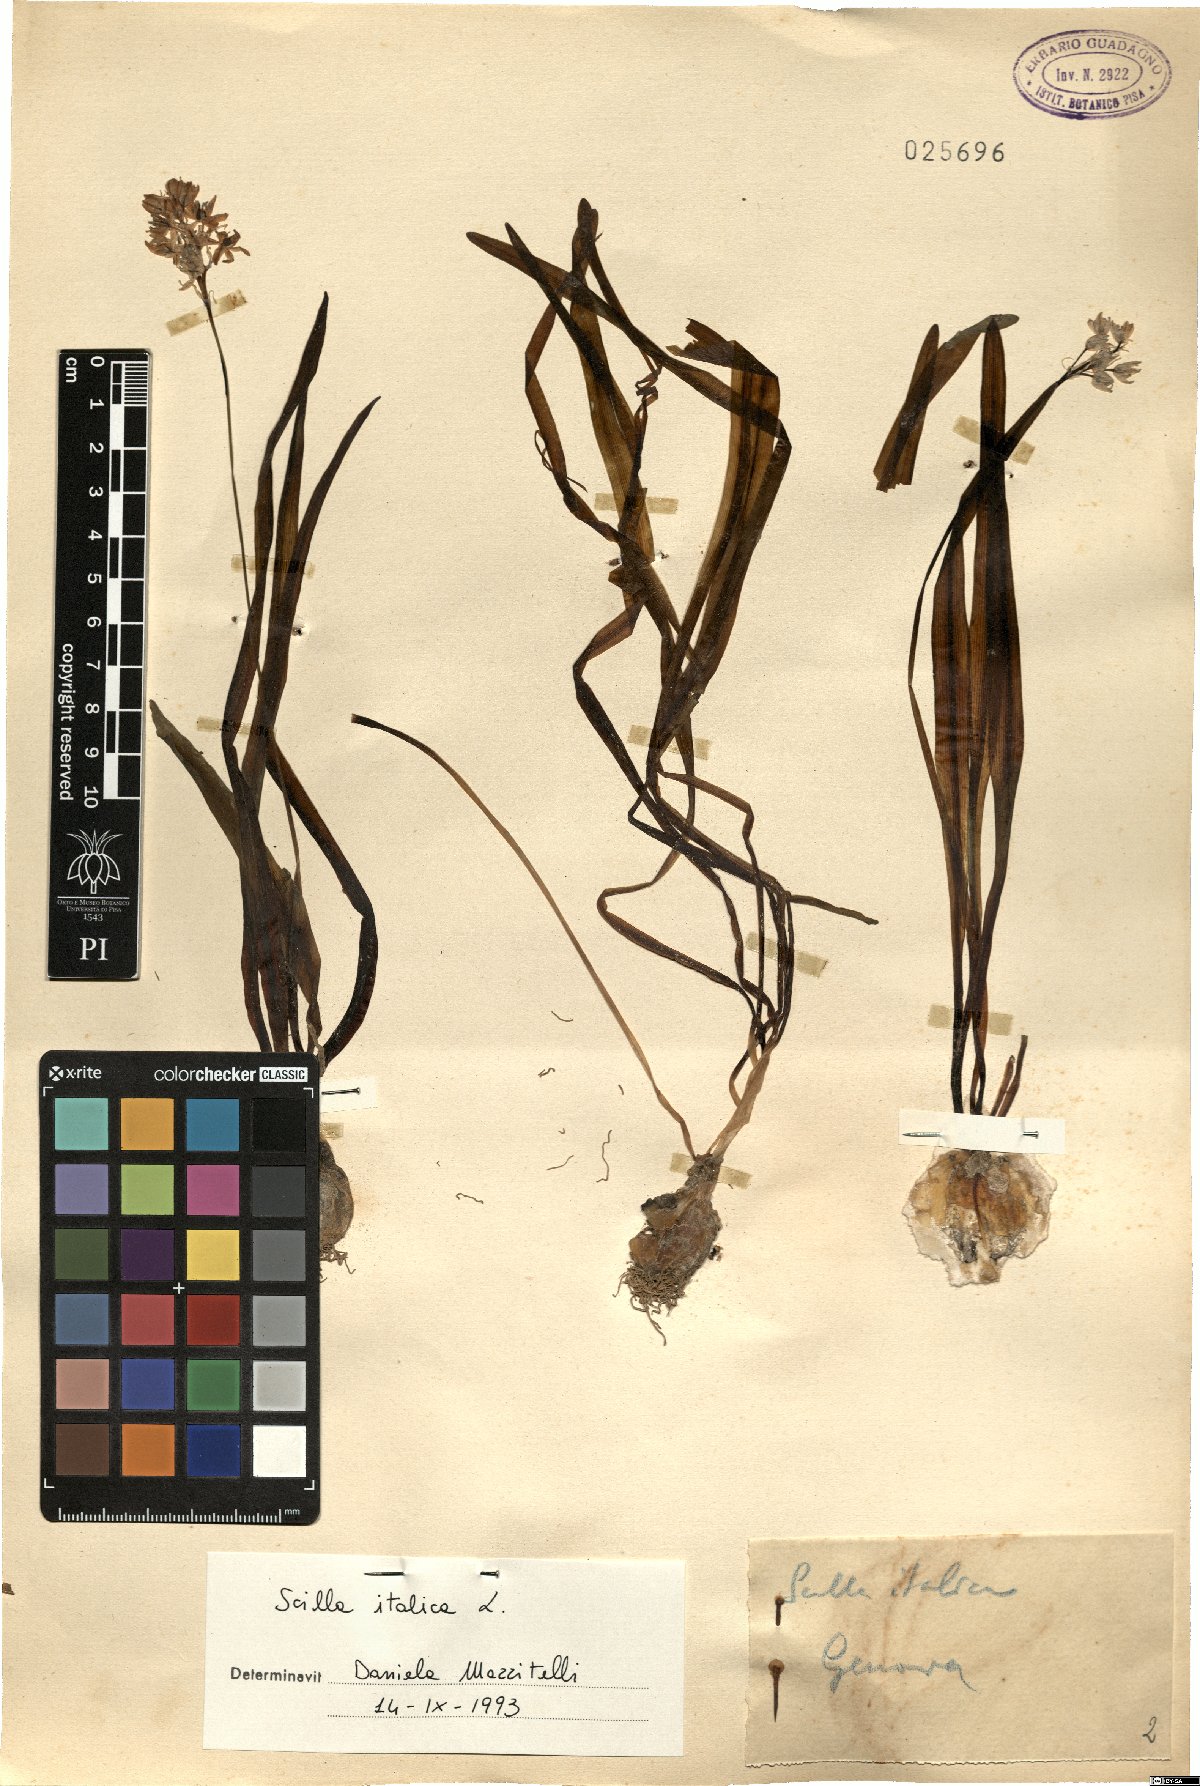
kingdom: Plantae
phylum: Tracheophyta
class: Liliopsida
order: Asparagales
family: Asparagaceae
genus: Hyacinthoides
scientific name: Hyacinthoides italica
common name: Italian bluebell
